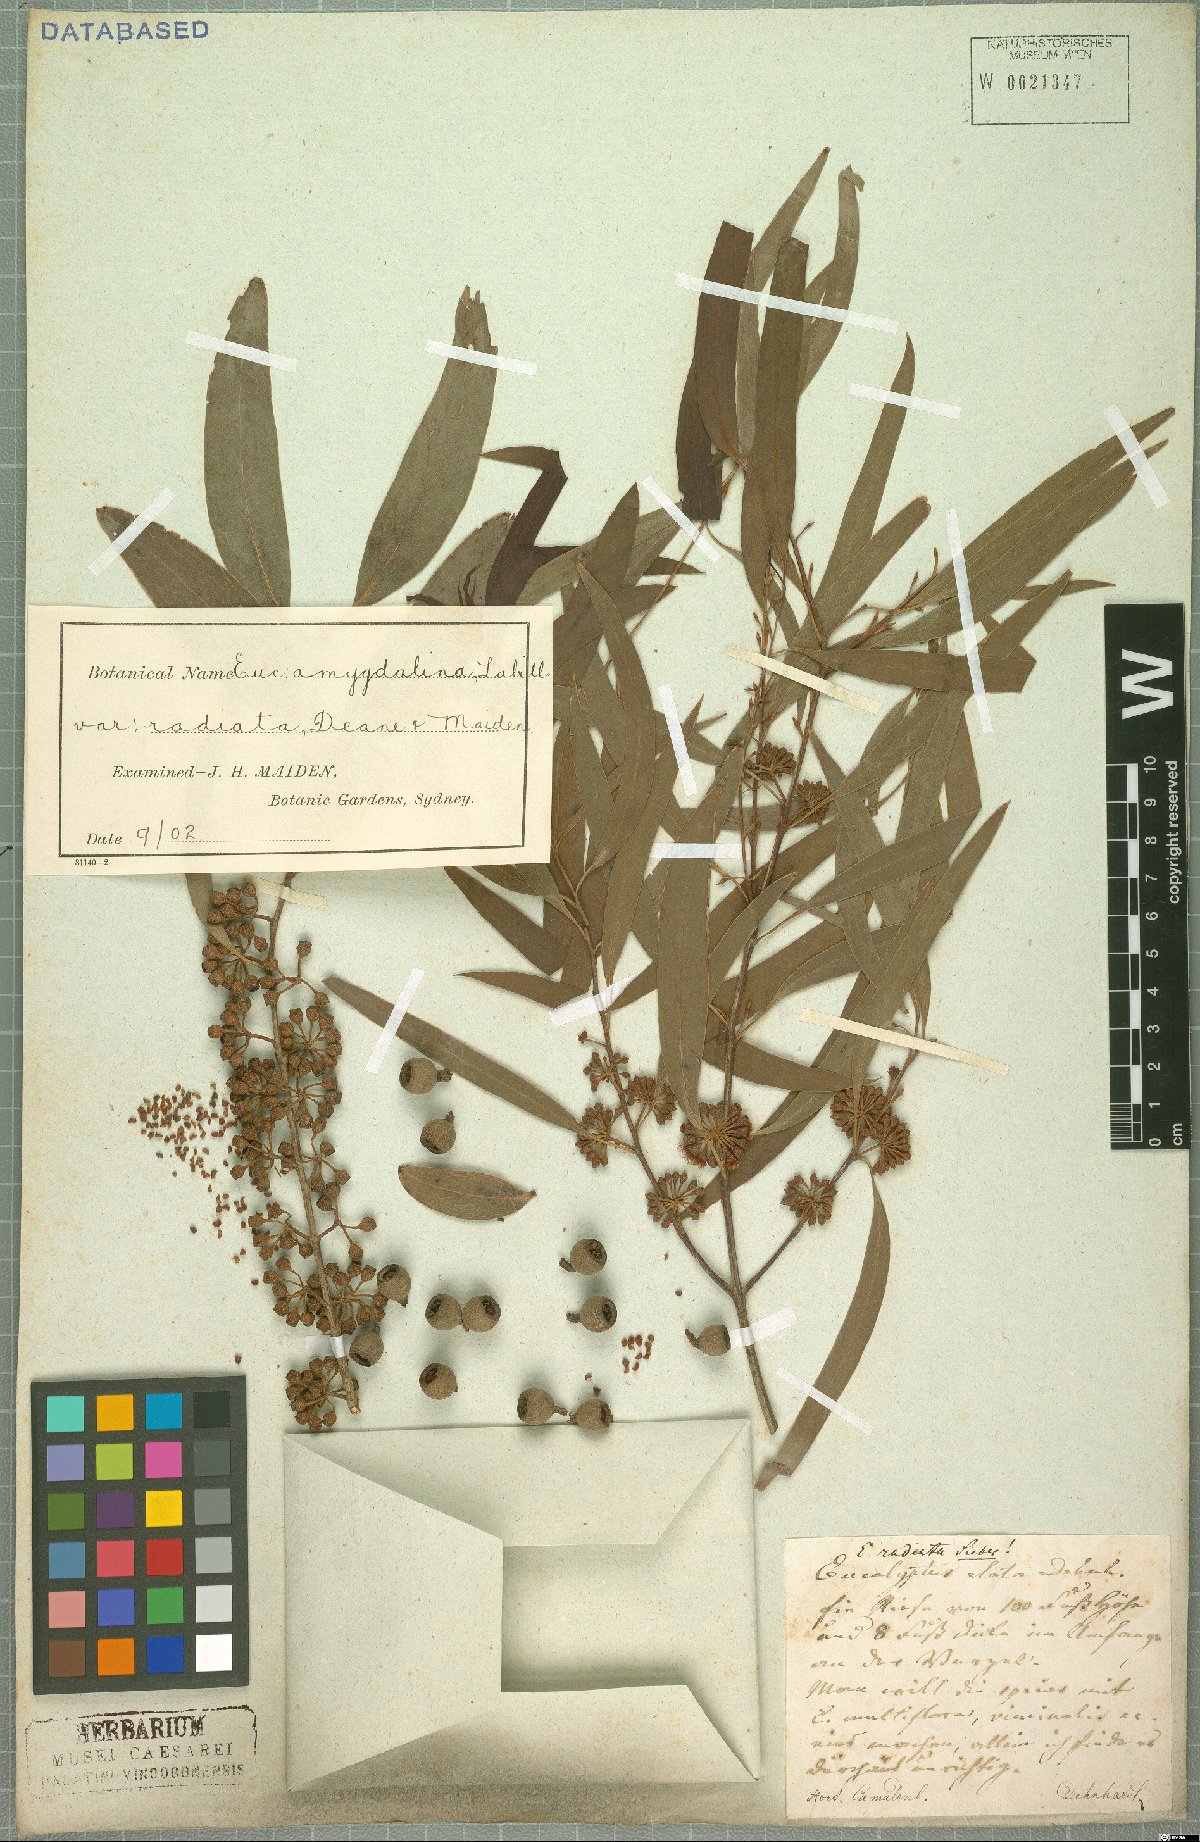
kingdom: Plantae
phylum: Tracheophyta
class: Magnoliopsida
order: Myrtales
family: Myrtaceae
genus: Eucalyptus
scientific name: Eucalyptus radiata
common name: Narrow-leaved-peppermint
